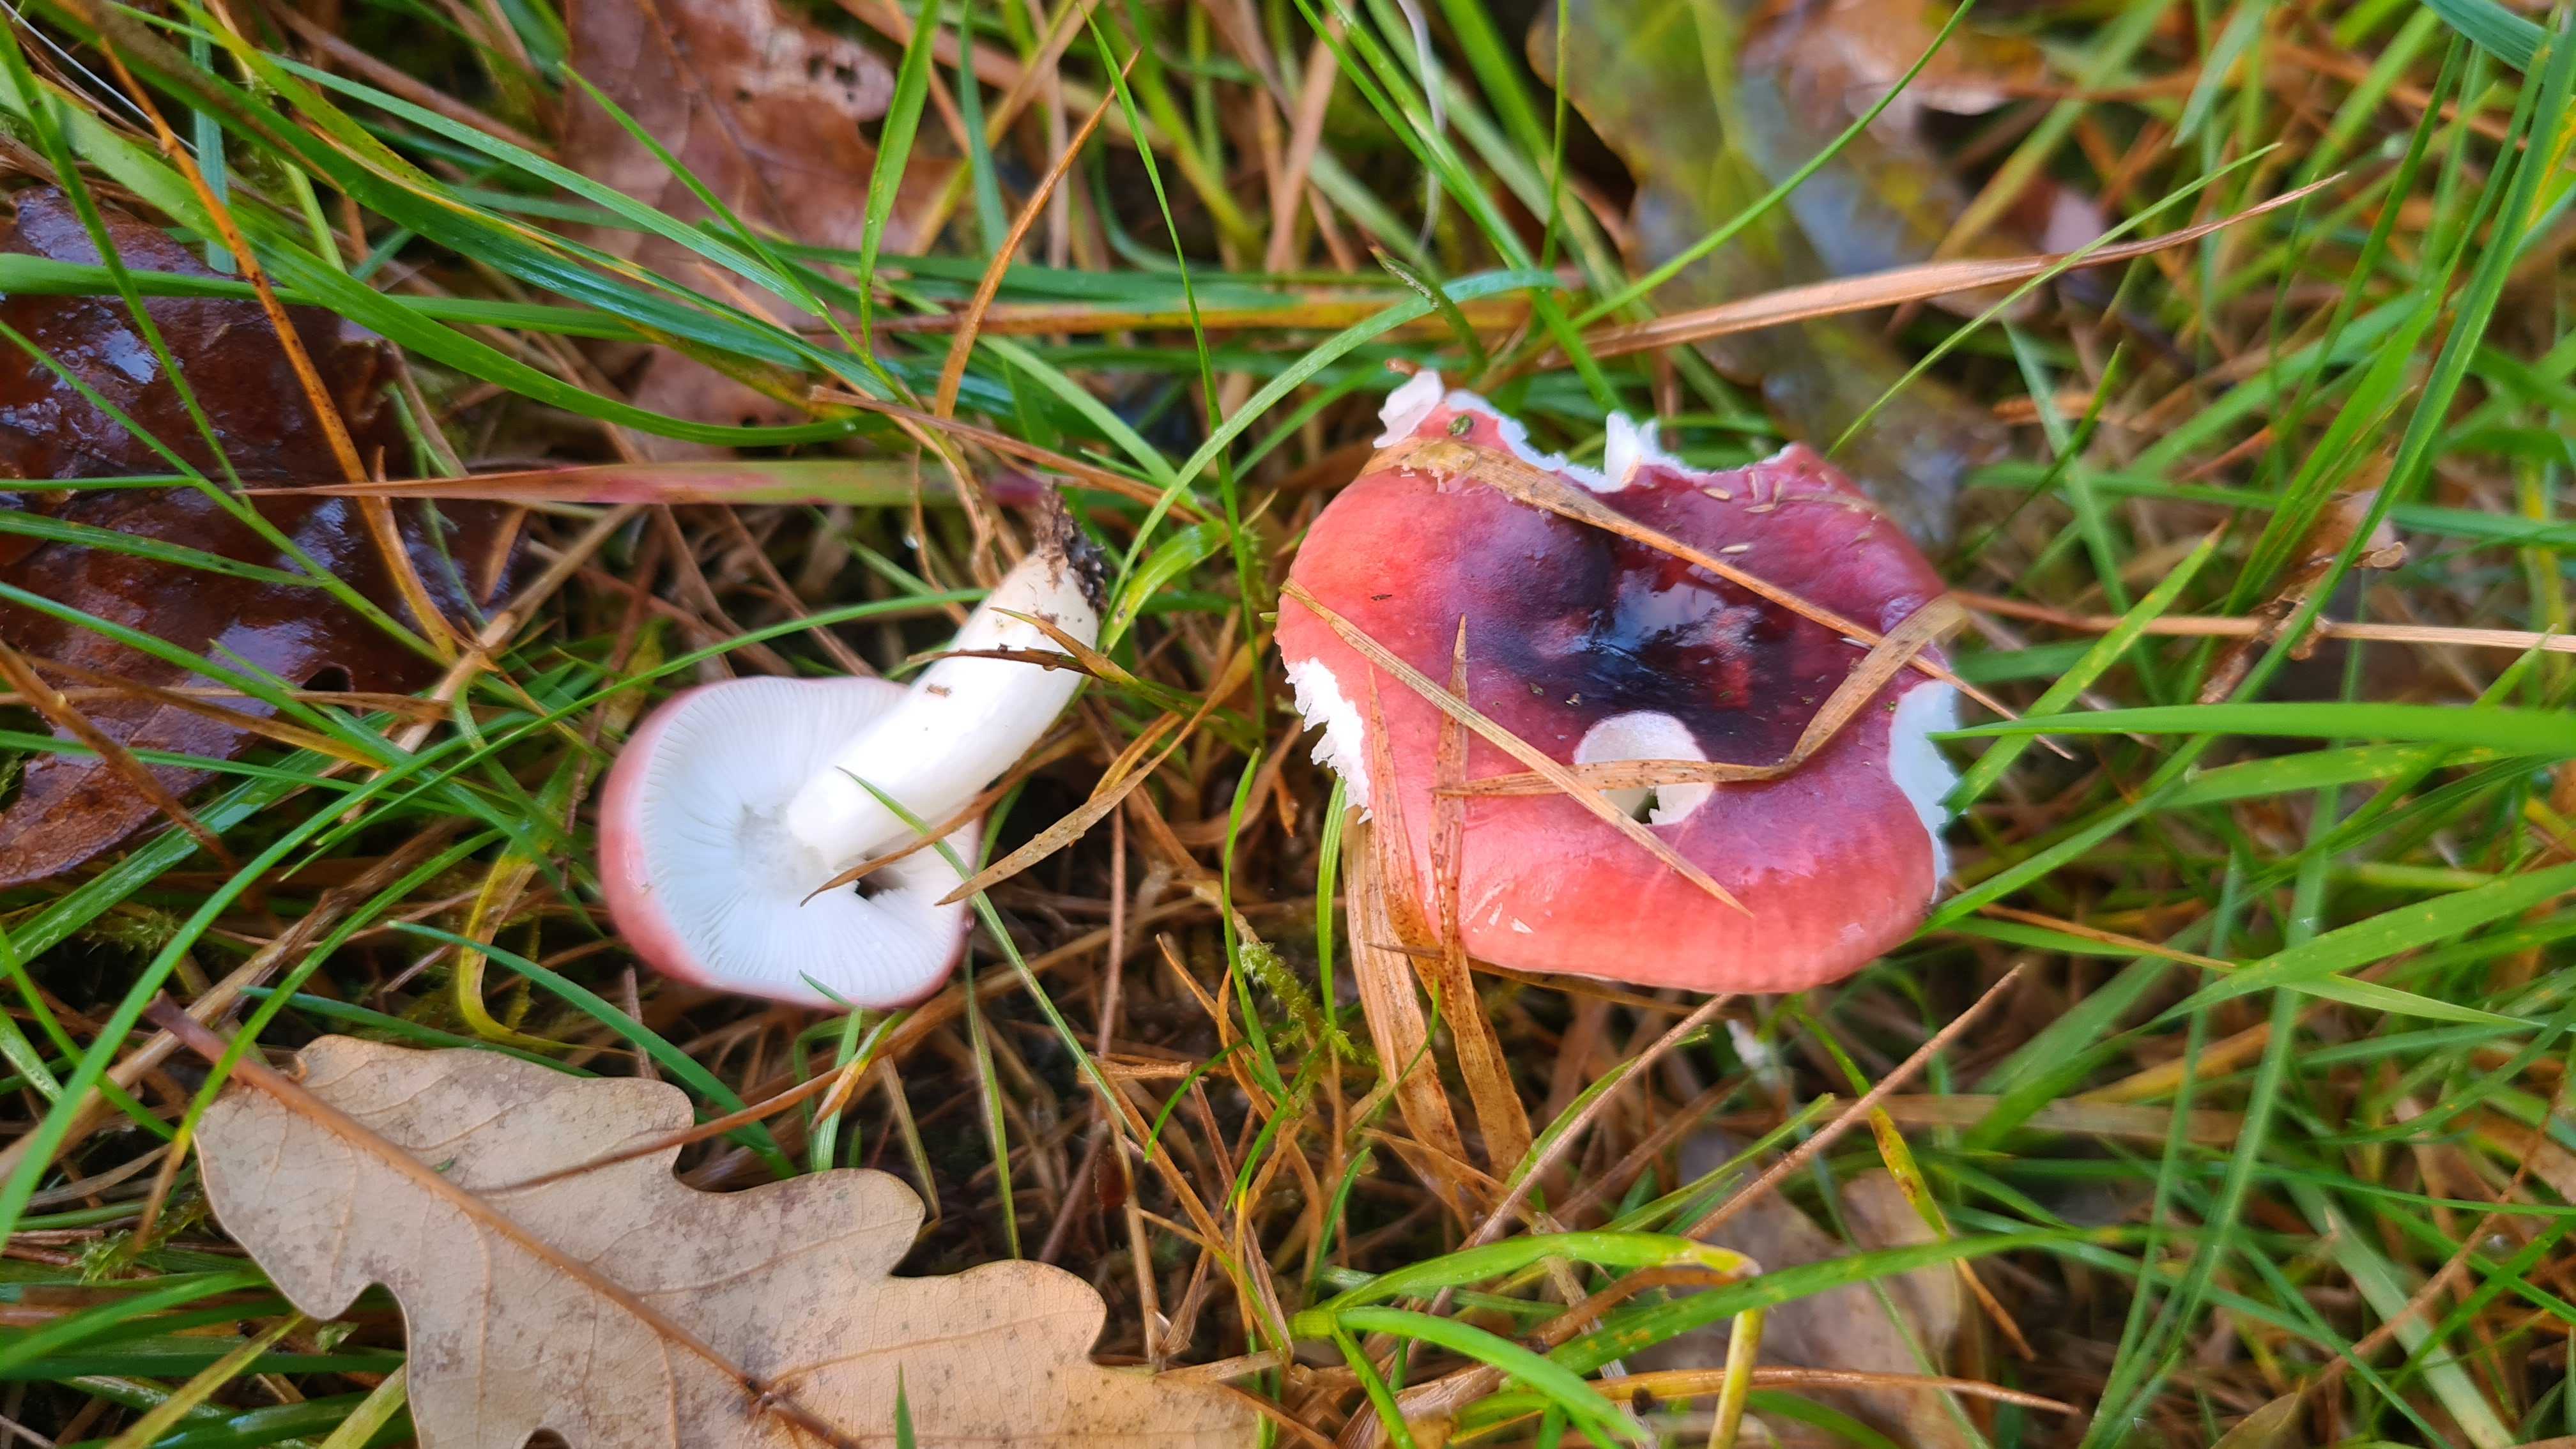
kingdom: Fungi
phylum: Basidiomycota
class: Agaricomycetes
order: Russulales
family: Russulaceae
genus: Russula
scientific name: Russula fragilis
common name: savbladet skørhat
